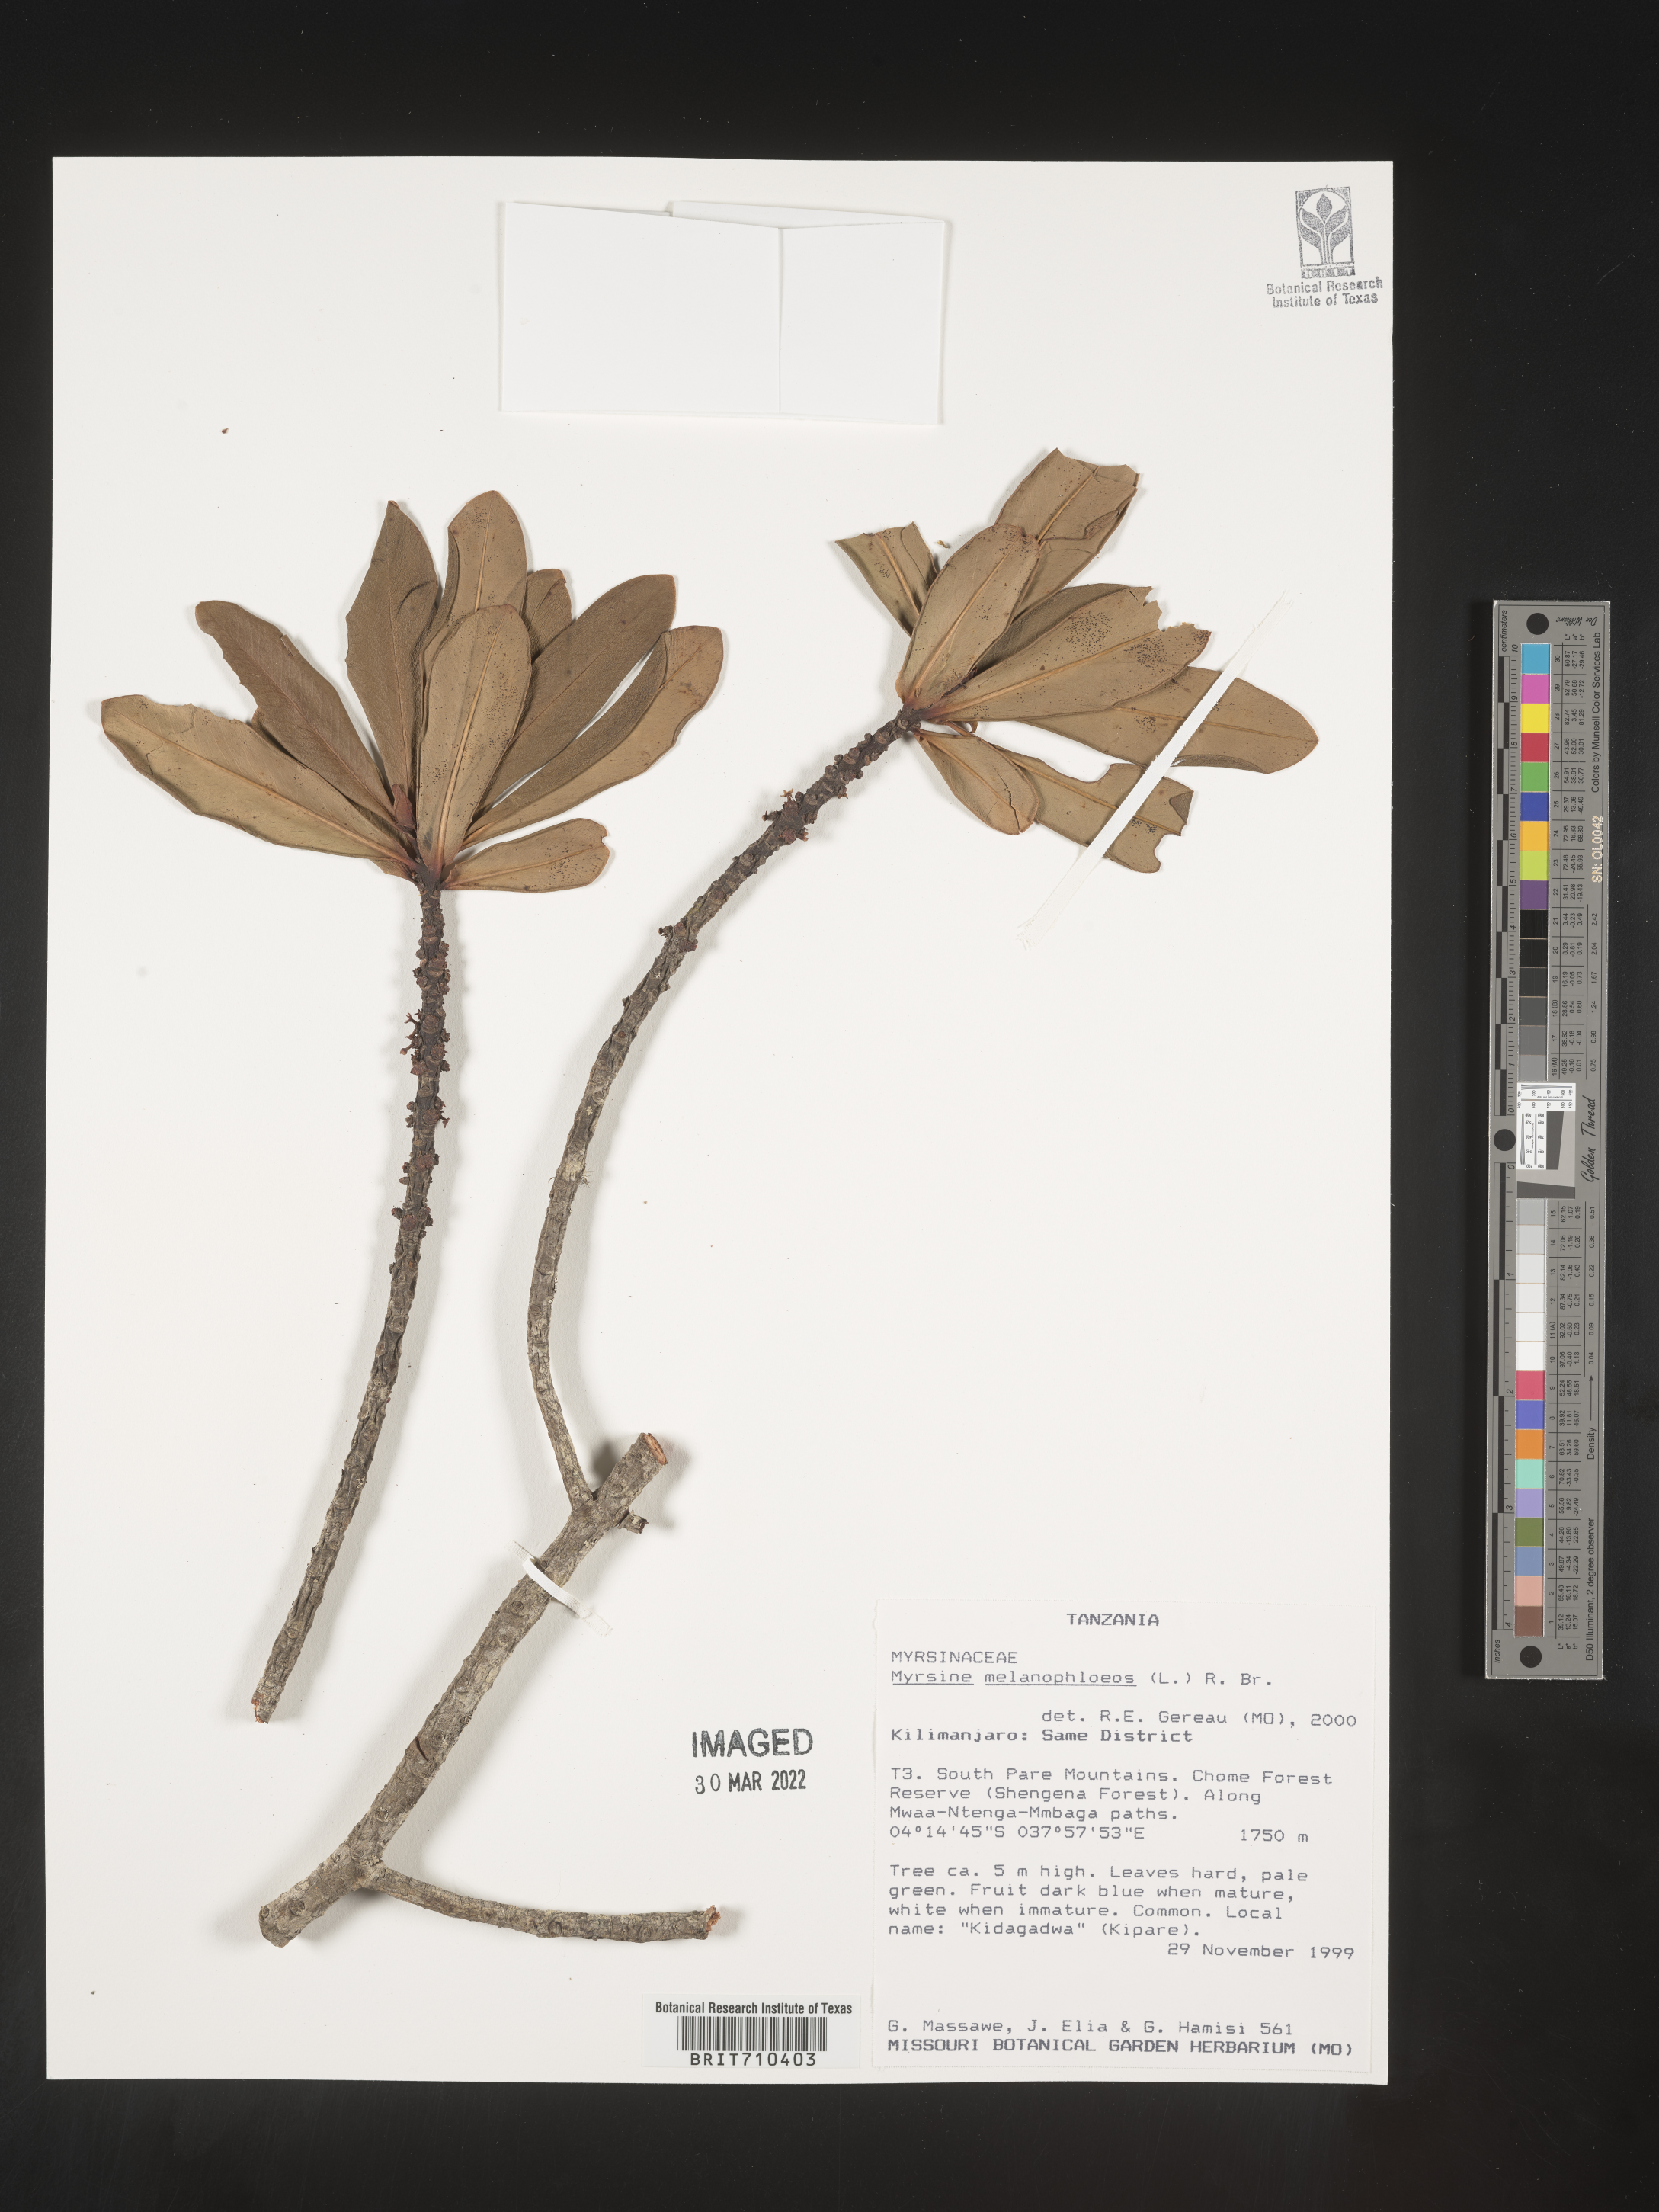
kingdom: Plantae
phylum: Tracheophyta
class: Magnoliopsida
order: Ericales
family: Primulaceae
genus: Myrsine
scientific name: Myrsine
